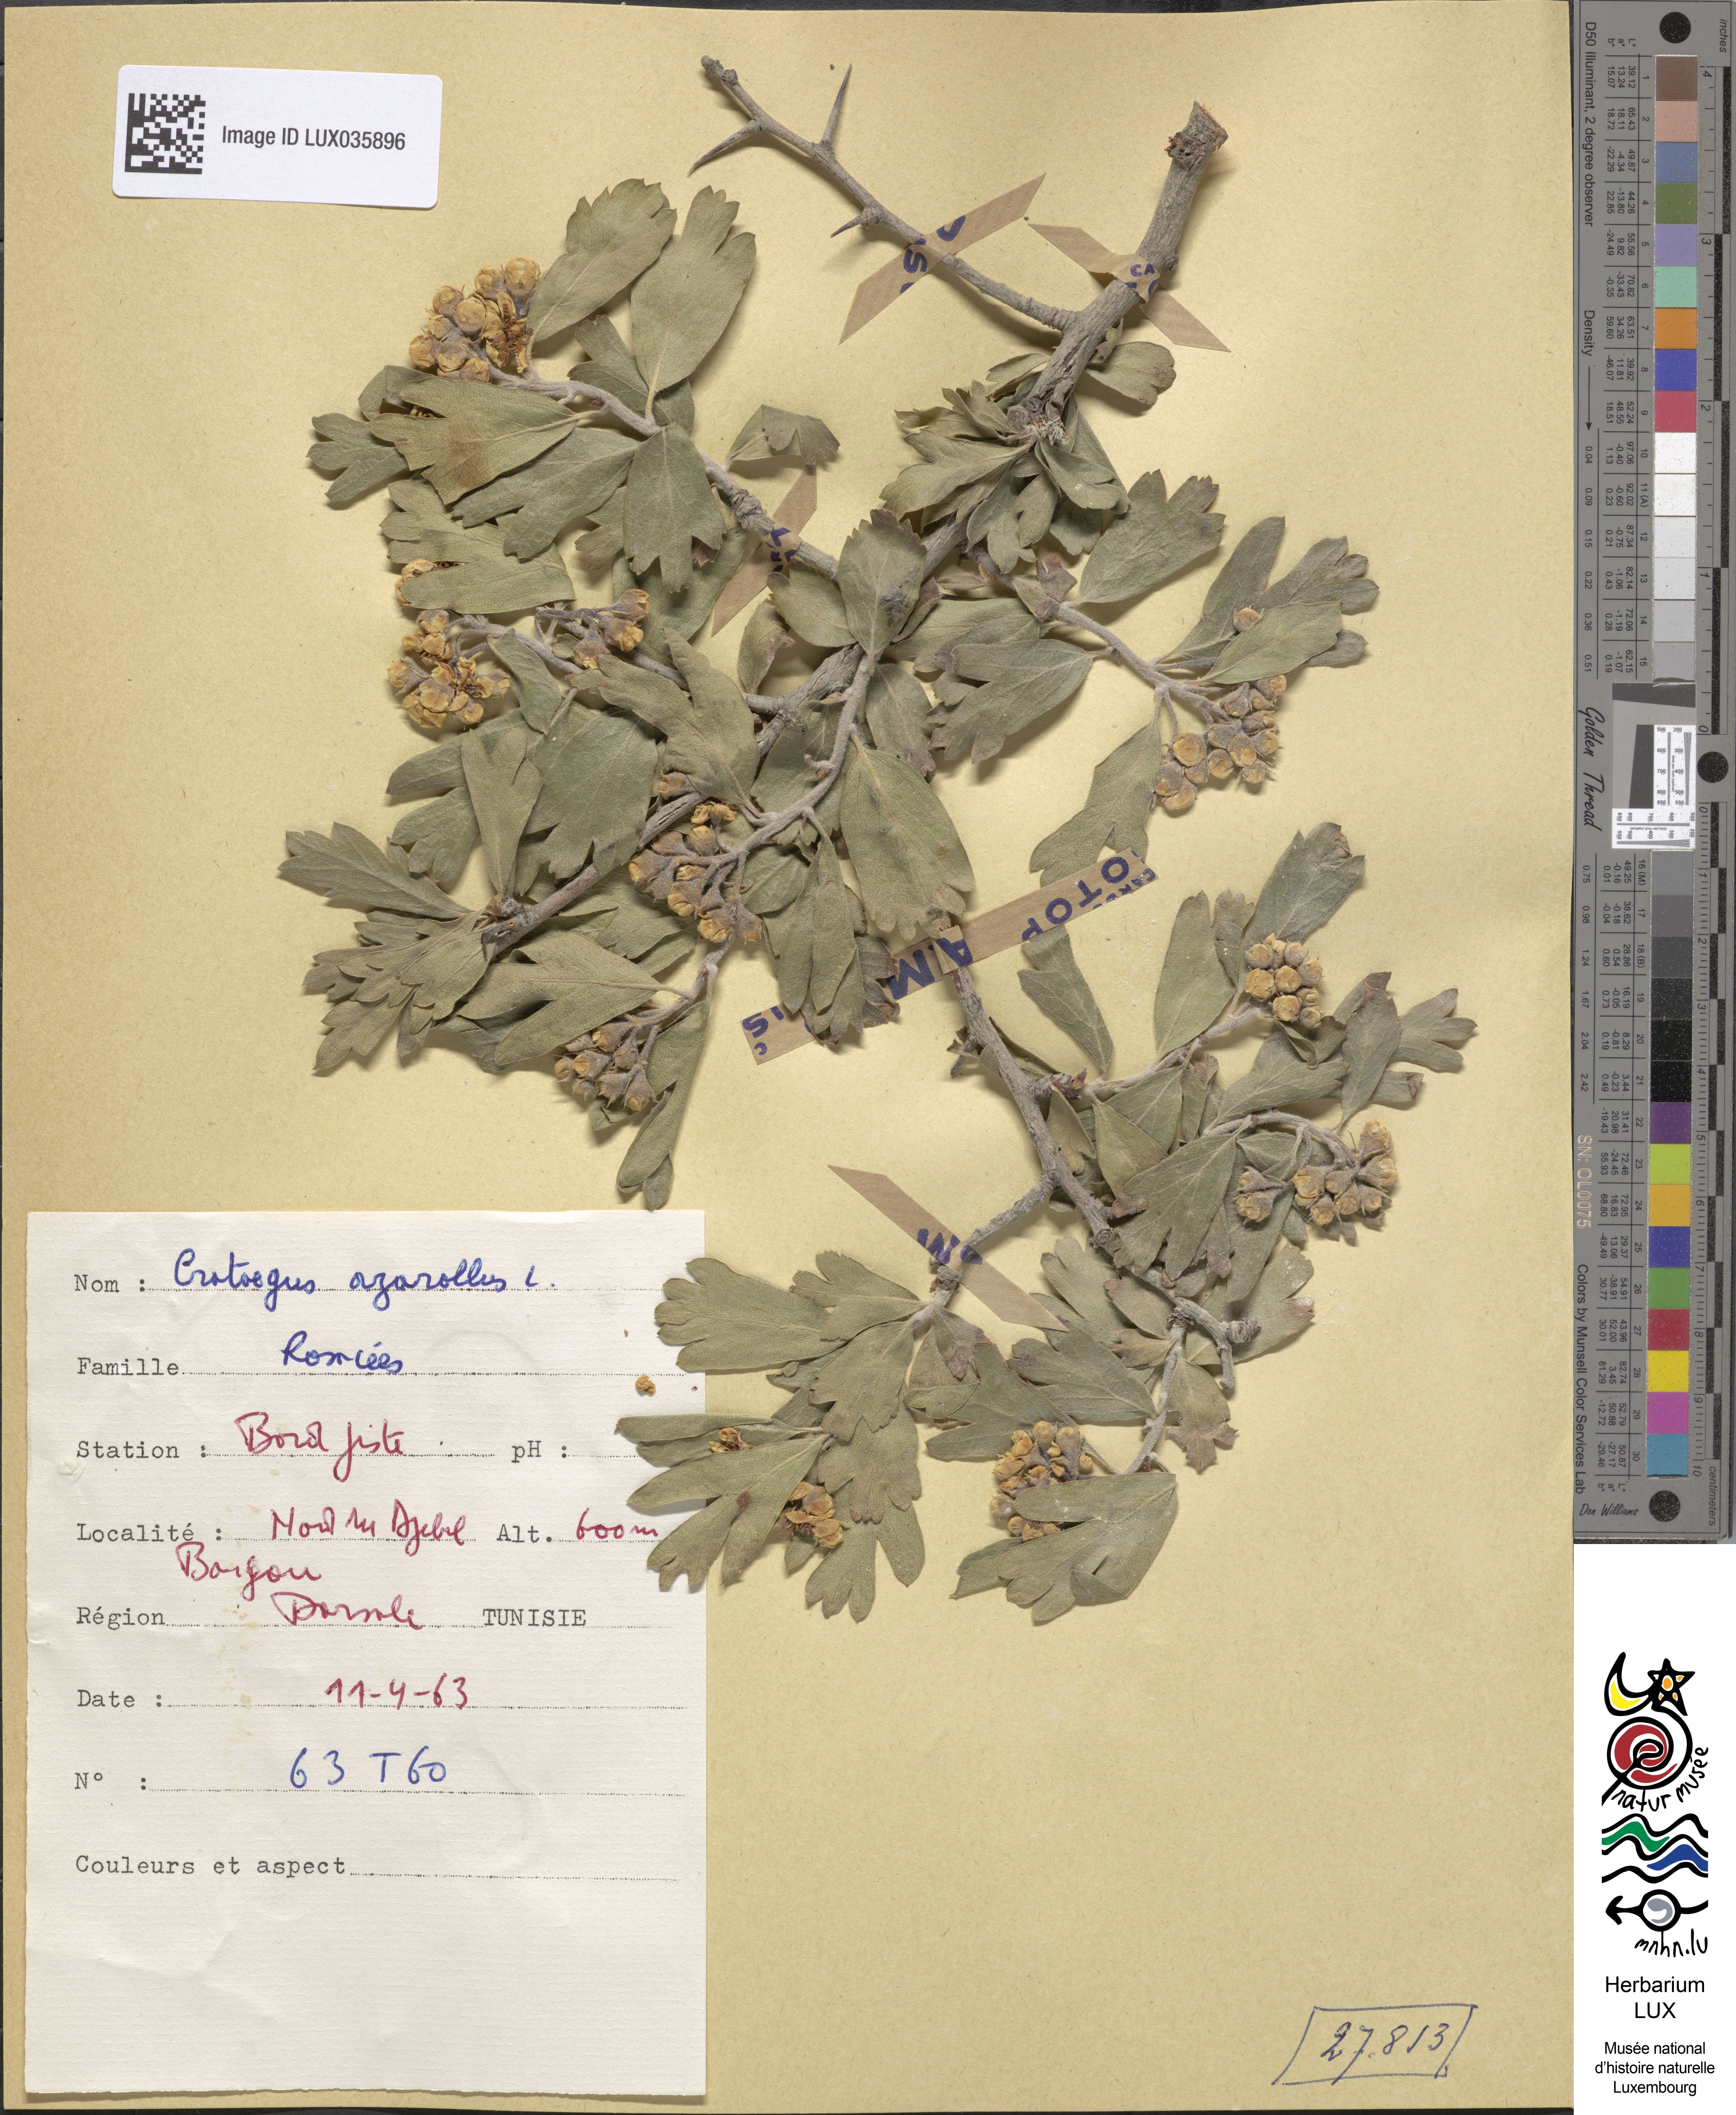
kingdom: Plantae
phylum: Tracheophyta
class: Magnoliopsida
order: Rosales
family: Rosaceae
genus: Crataegus
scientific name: Crataegus azarolus
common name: Azarole
